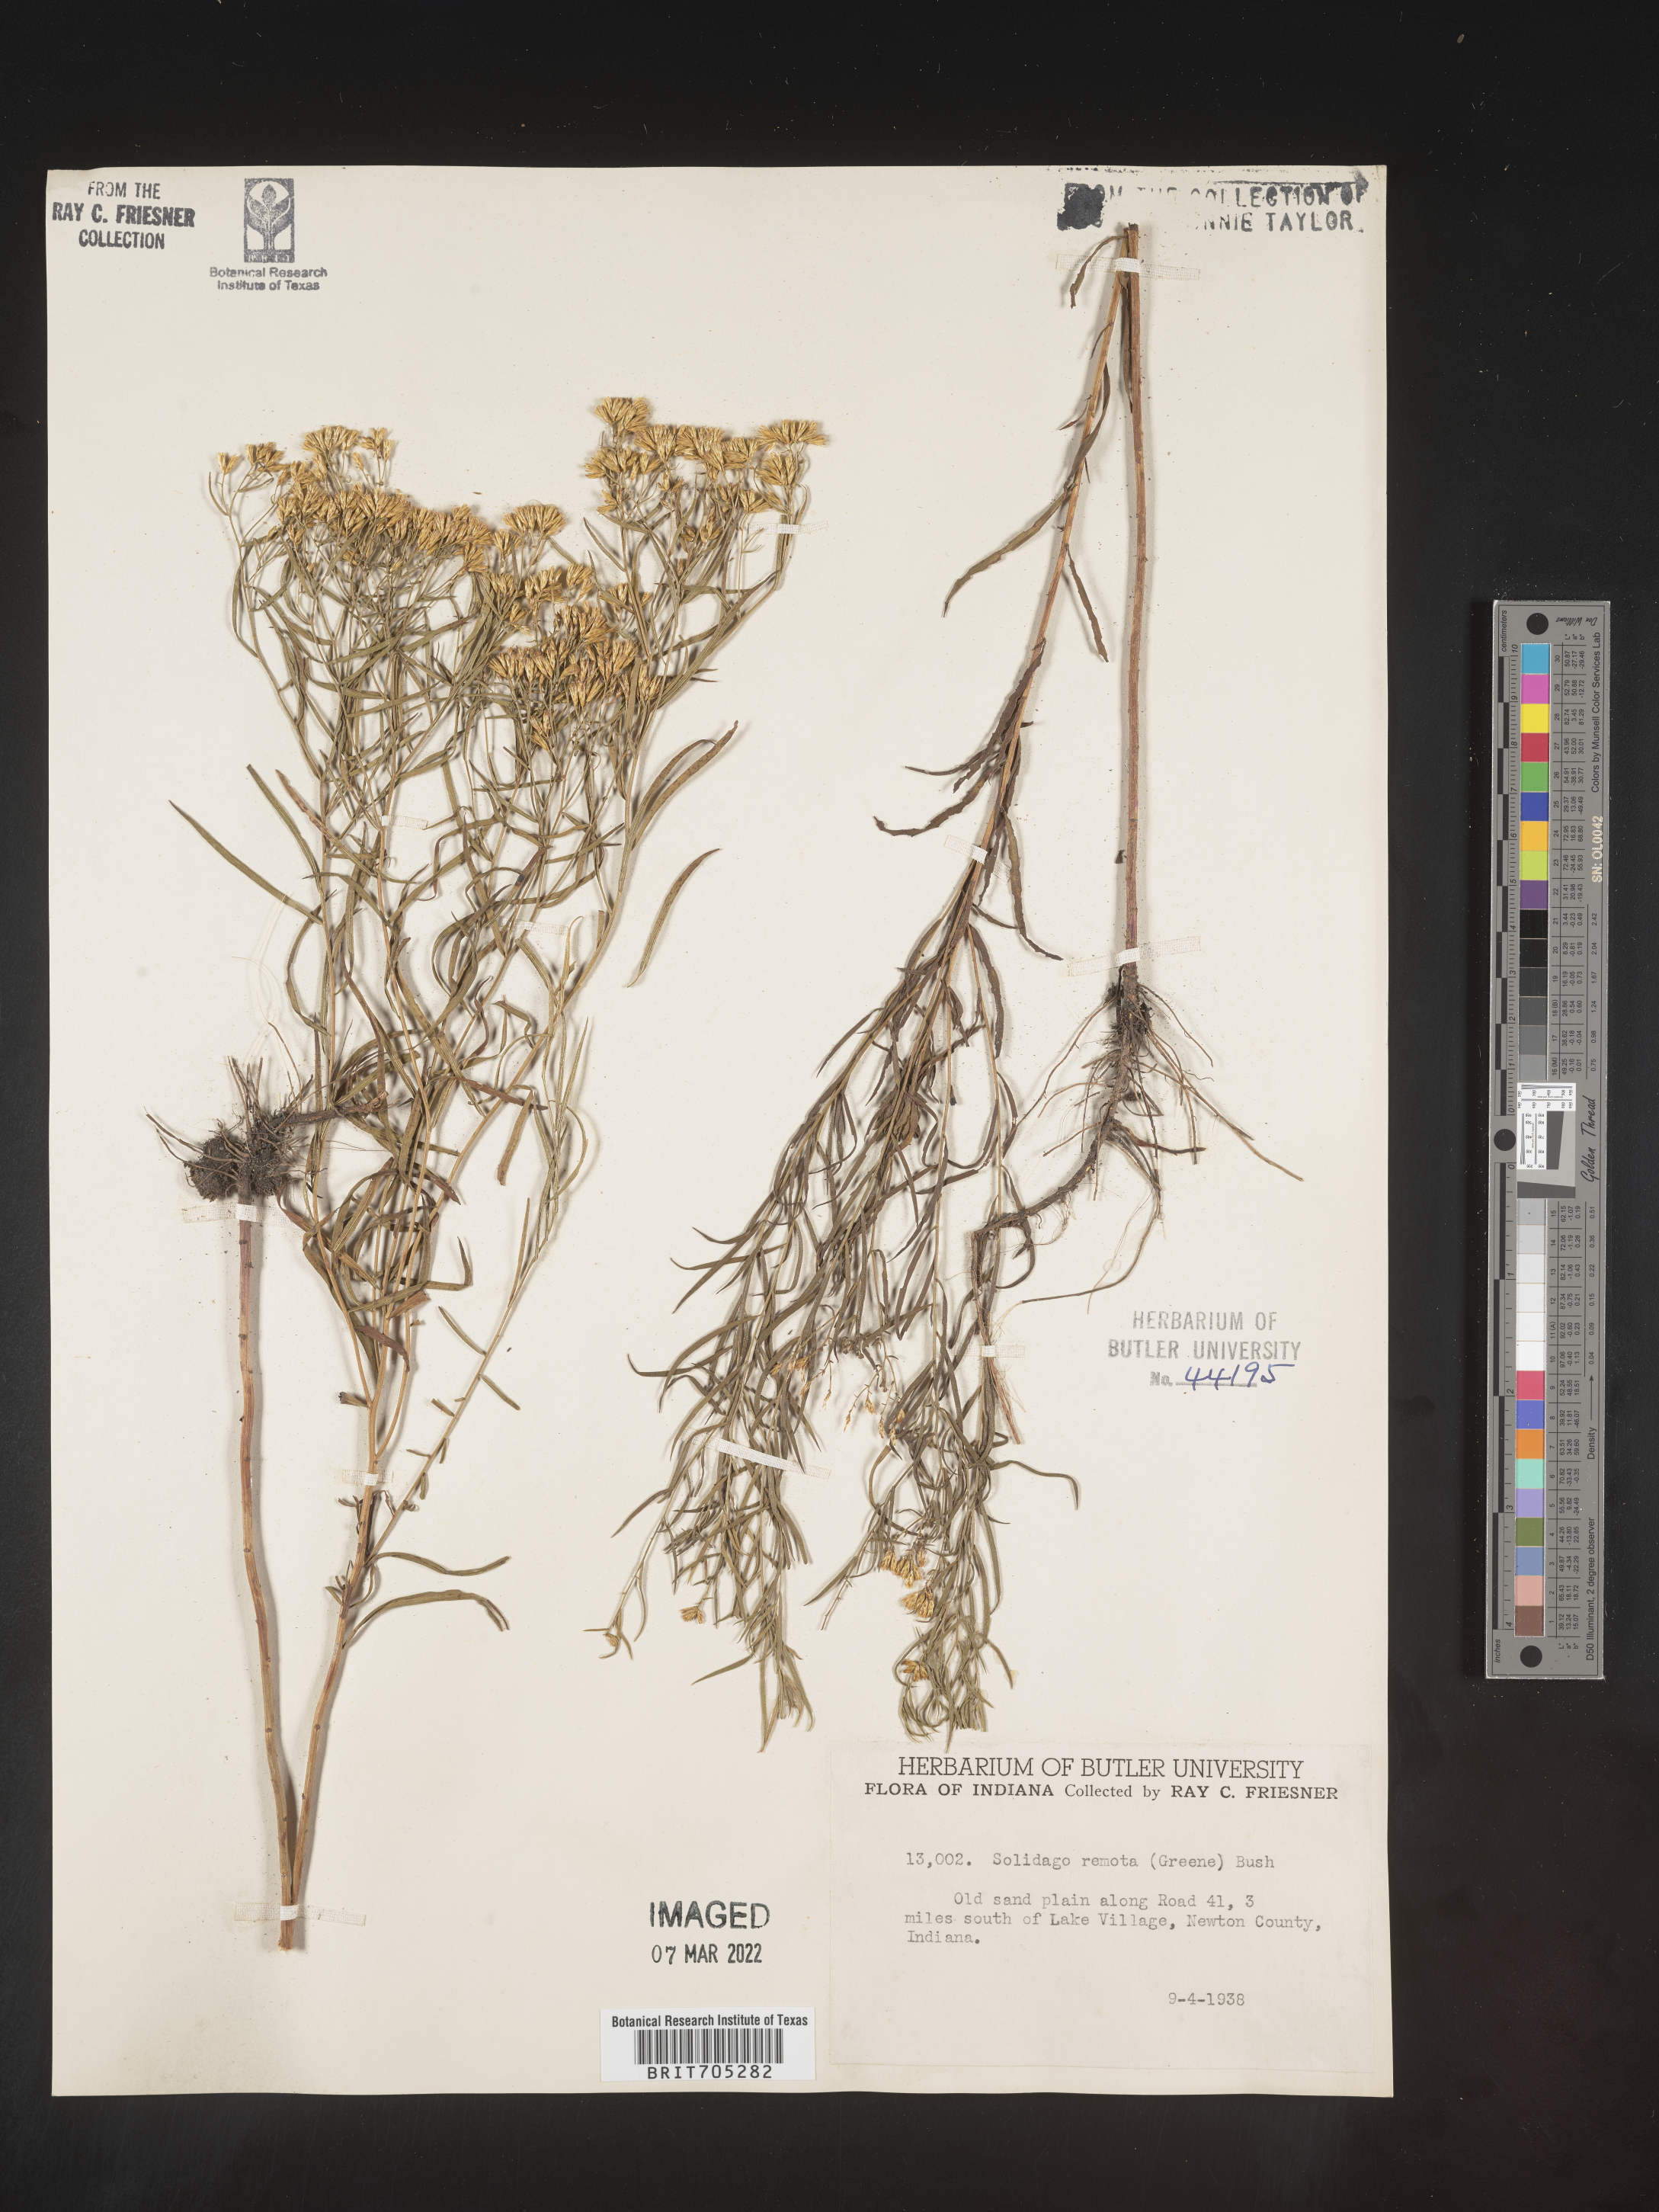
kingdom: Plantae
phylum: Tracheophyta
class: Magnoliopsida
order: Asterales
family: Asteraceae
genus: Euthamia
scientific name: Euthamia gymnospermoides
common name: Great plains goldentop
